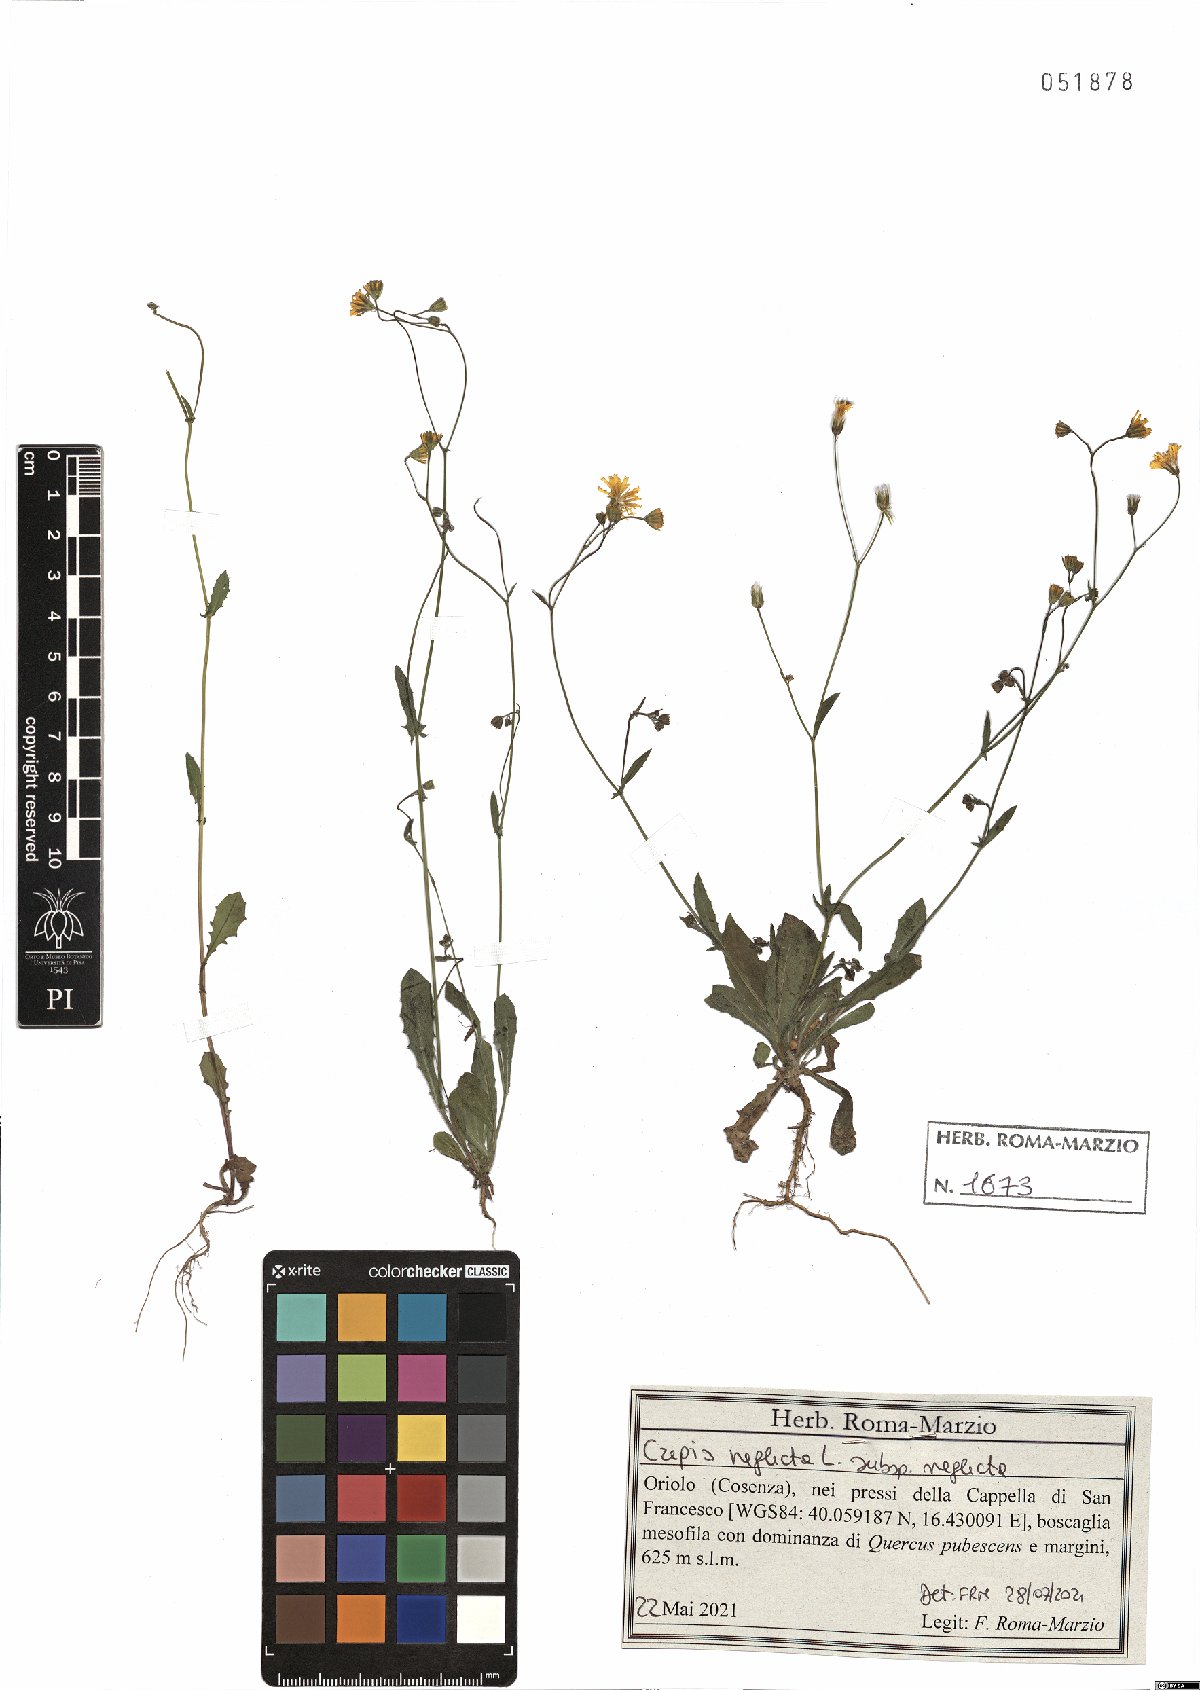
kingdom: Plantae
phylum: Tracheophyta
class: Magnoliopsida
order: Asterales
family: Asteraceae
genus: Crepis
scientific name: Crepis neglecta
